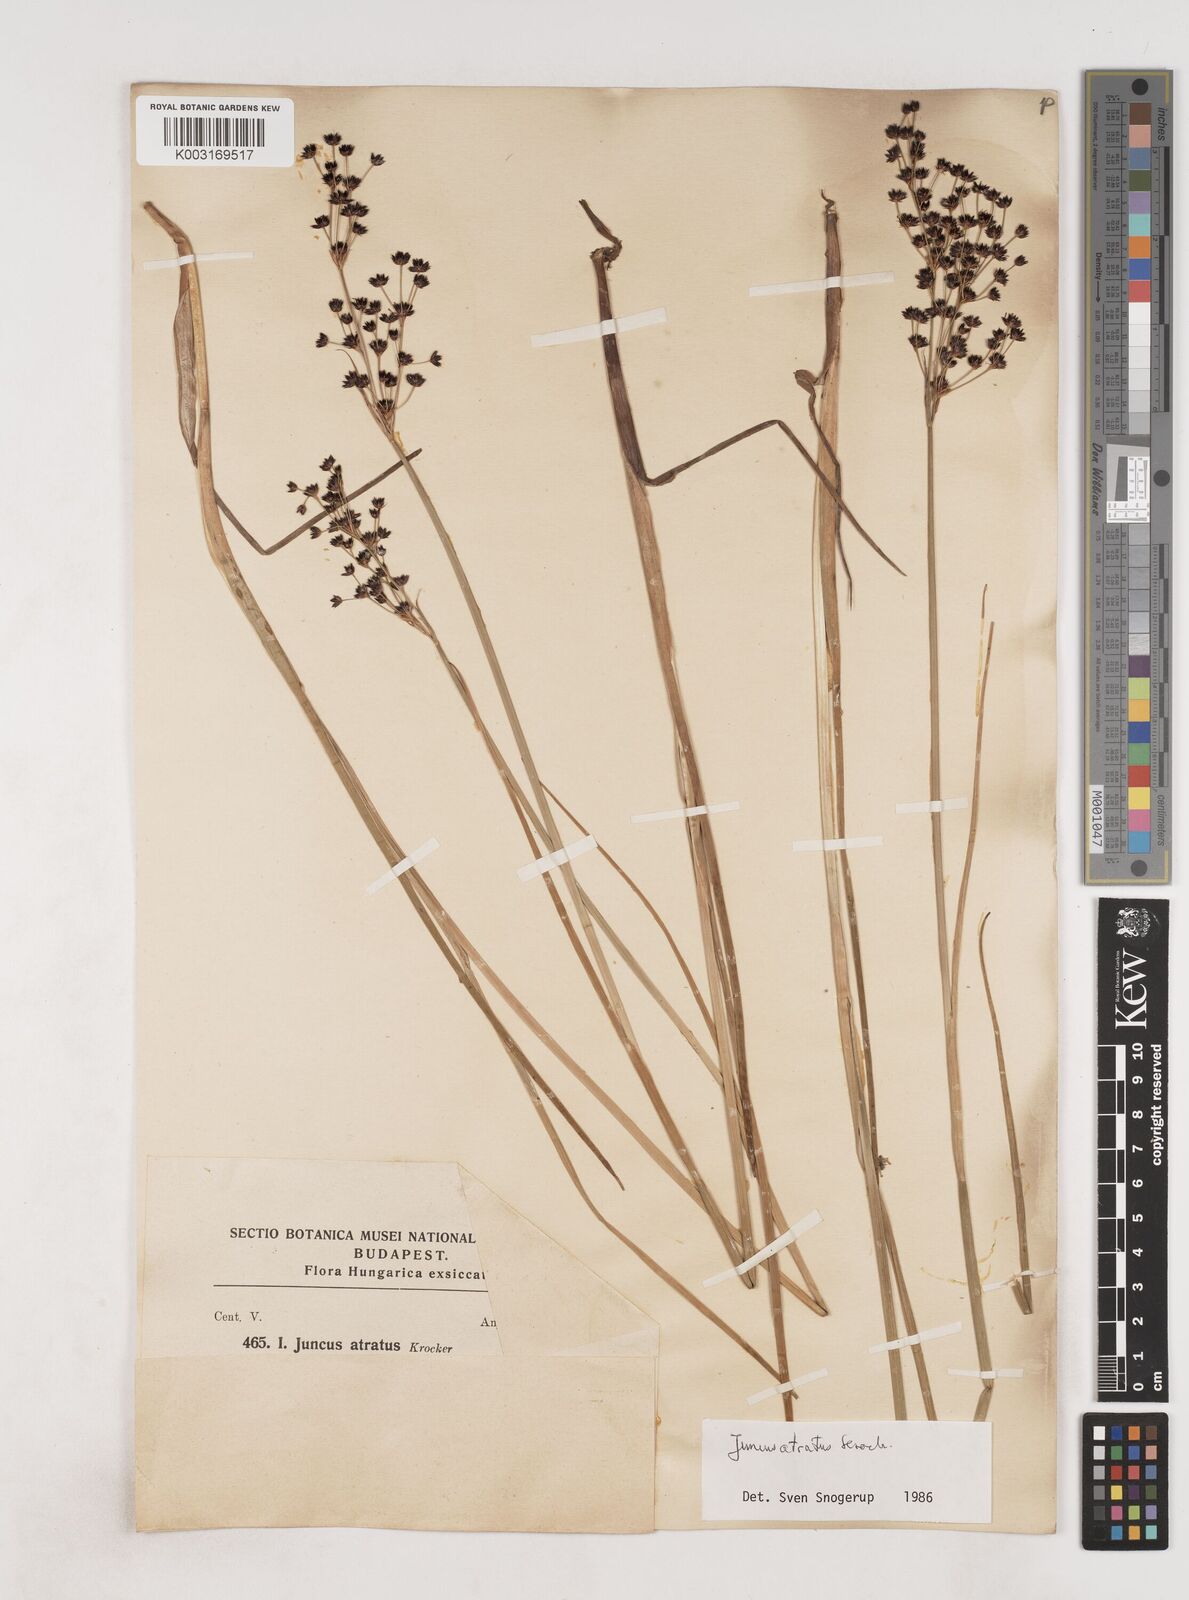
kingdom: Plantae
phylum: Tracheophyta
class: Liliopsida
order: Poales
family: Juncaceae
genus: Juncus
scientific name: Juncus atratus
